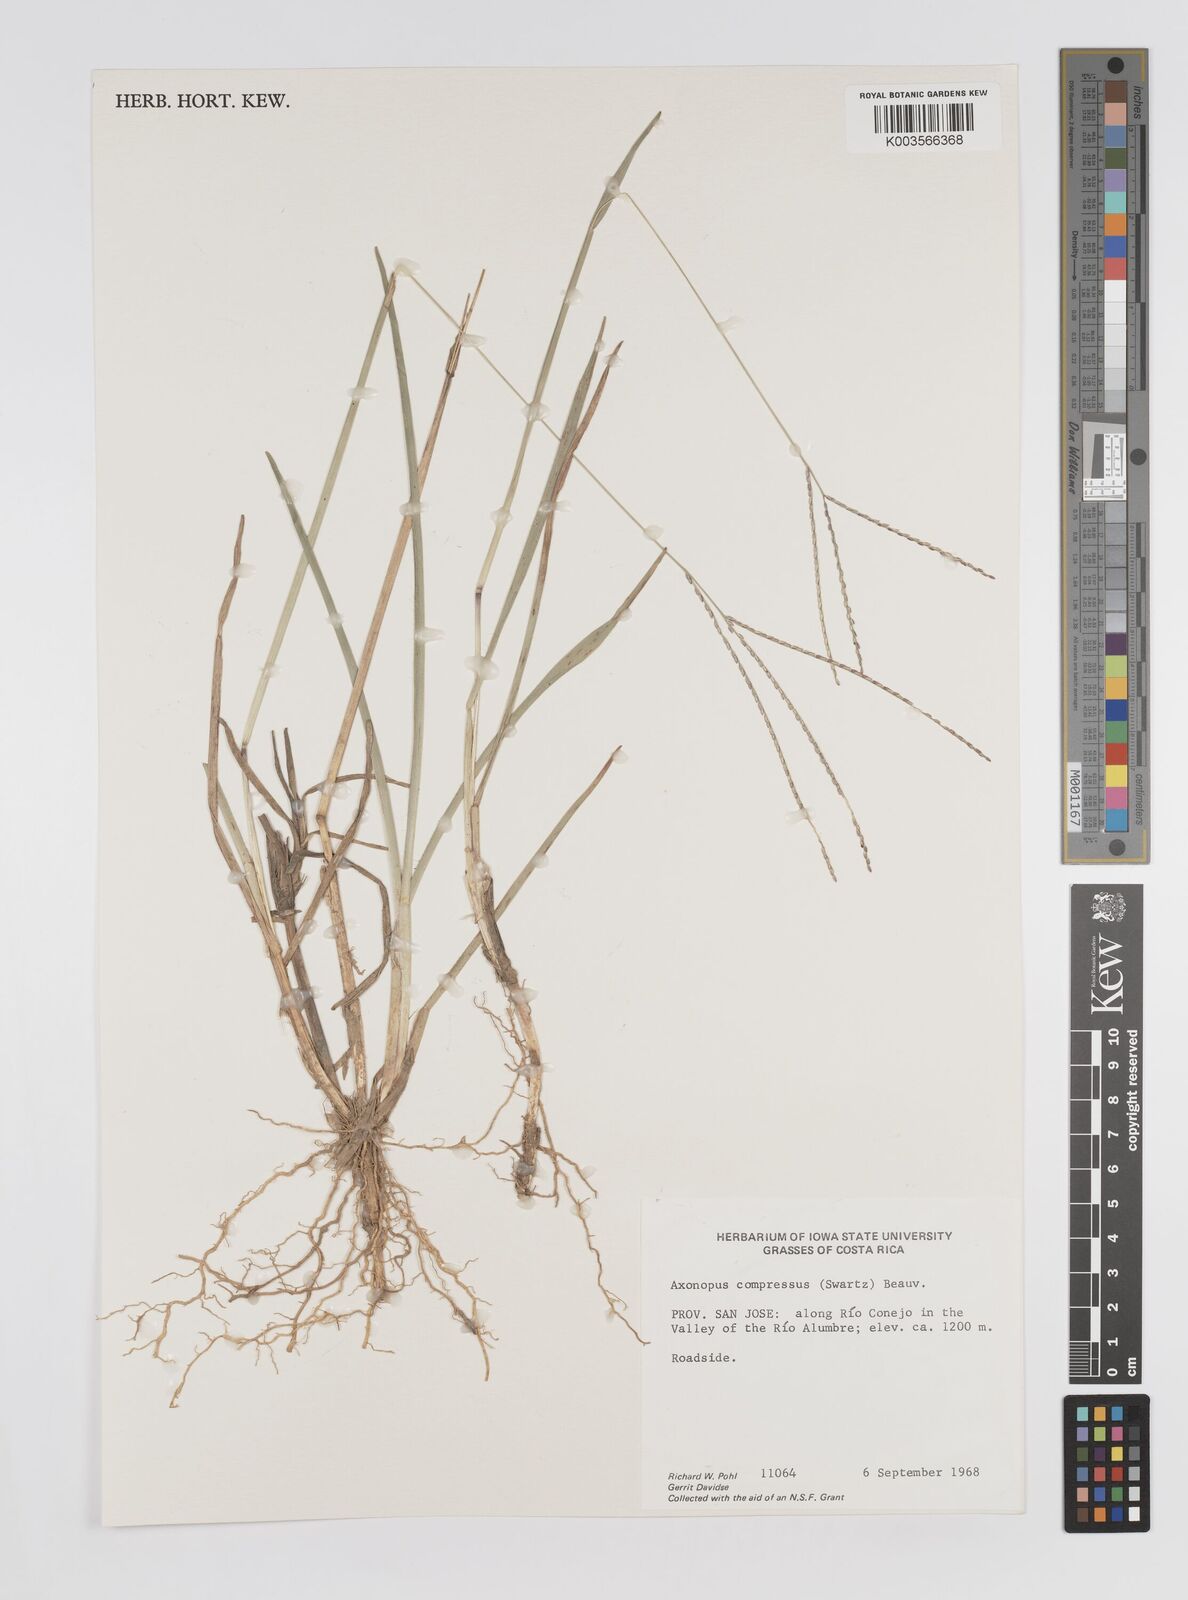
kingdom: Plantae
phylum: Tracheophyta
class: Liliopsida
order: Poales
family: Poaceae
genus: Axonopus
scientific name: Axonopus compressus
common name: American carpet grass
